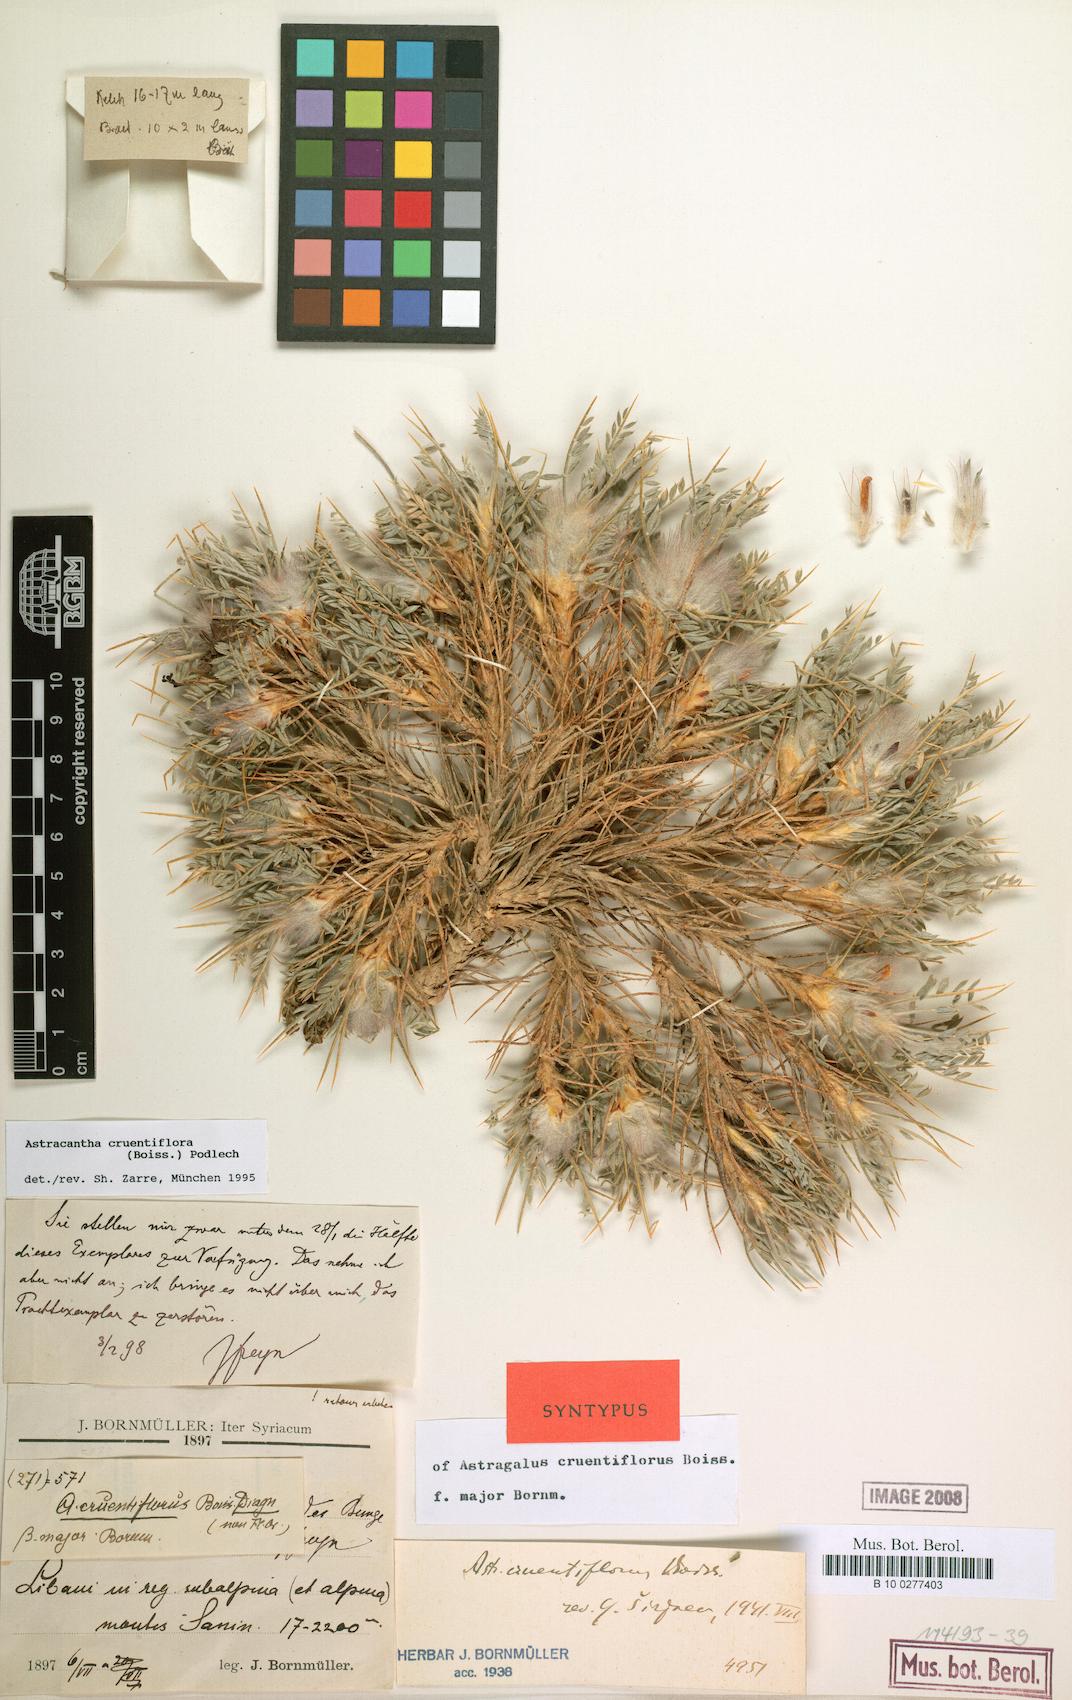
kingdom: Plantae
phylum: Tracheophyta
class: Magnoliopsida
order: Fabales
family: Fabaceae
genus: Astragalus
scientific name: Astragalus cruentiflorus
